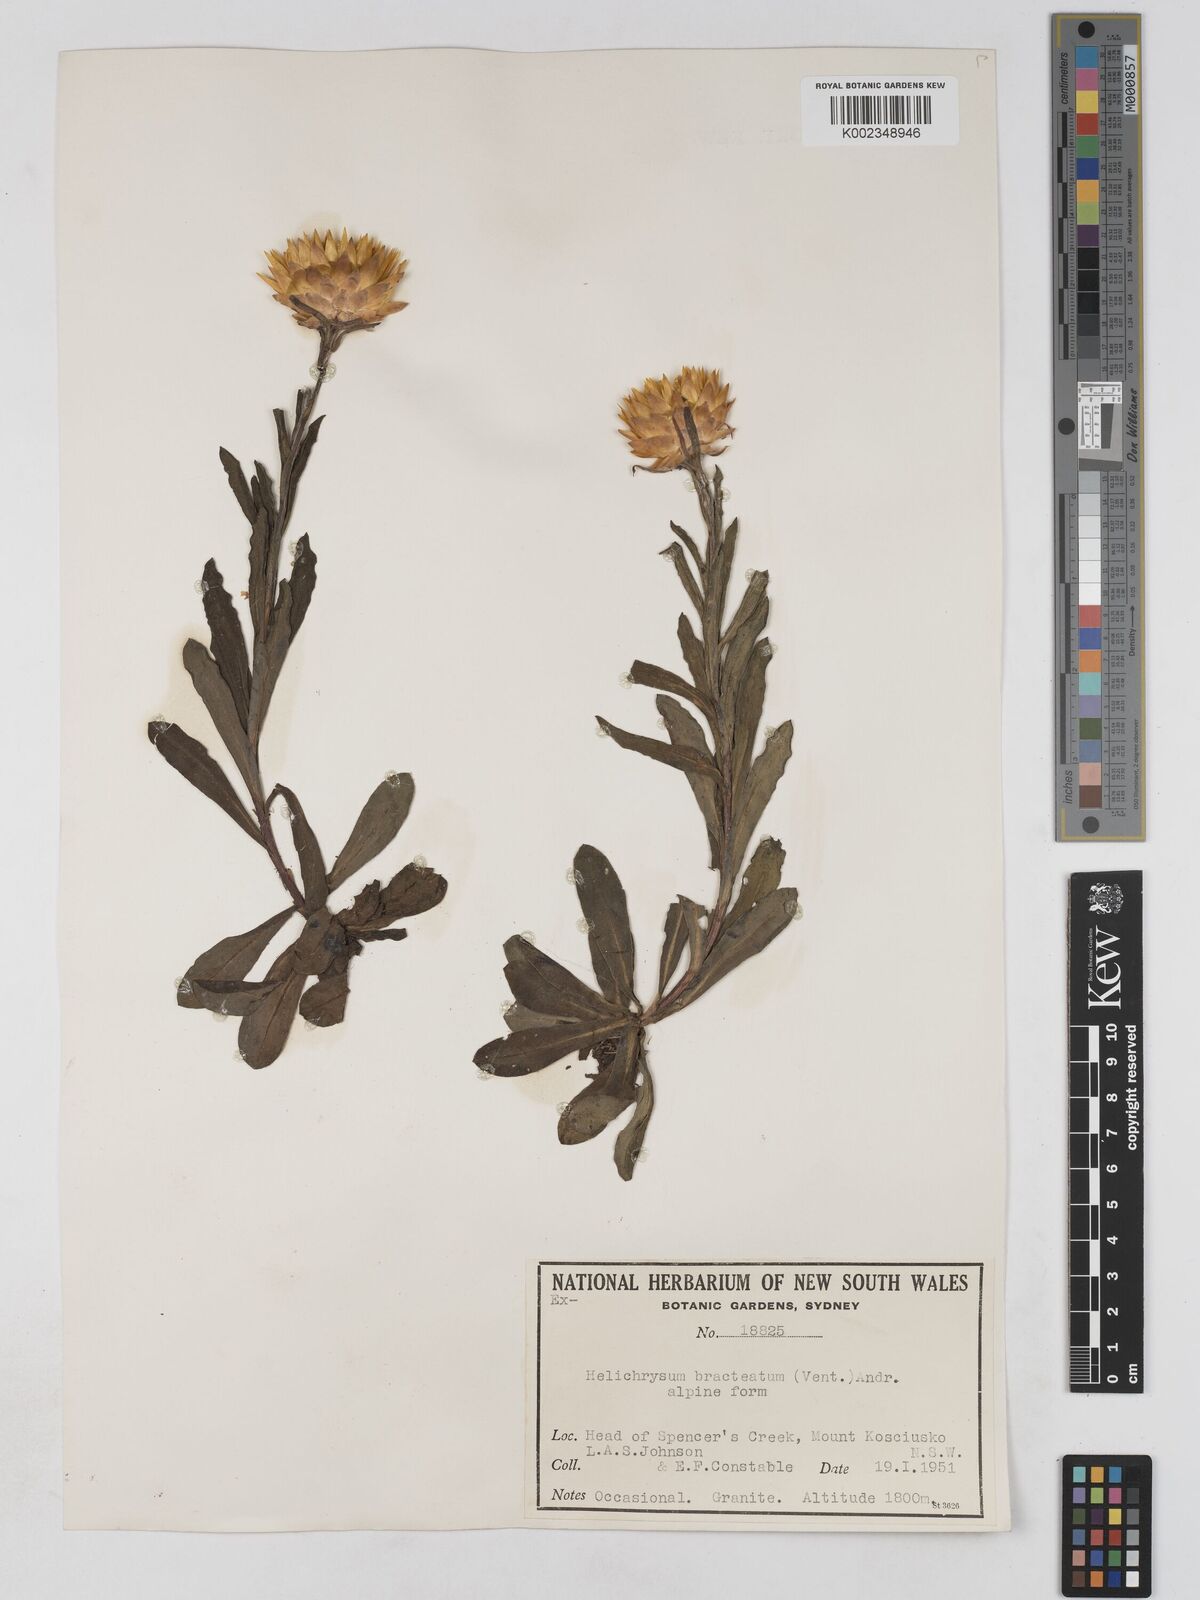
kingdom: Plantae
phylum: Tracheophyta
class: Magnoliopsida
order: Asterales
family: Asteraceae
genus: Xerochrysum
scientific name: Xerochrysum bracteatum
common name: Bracted strawflower
